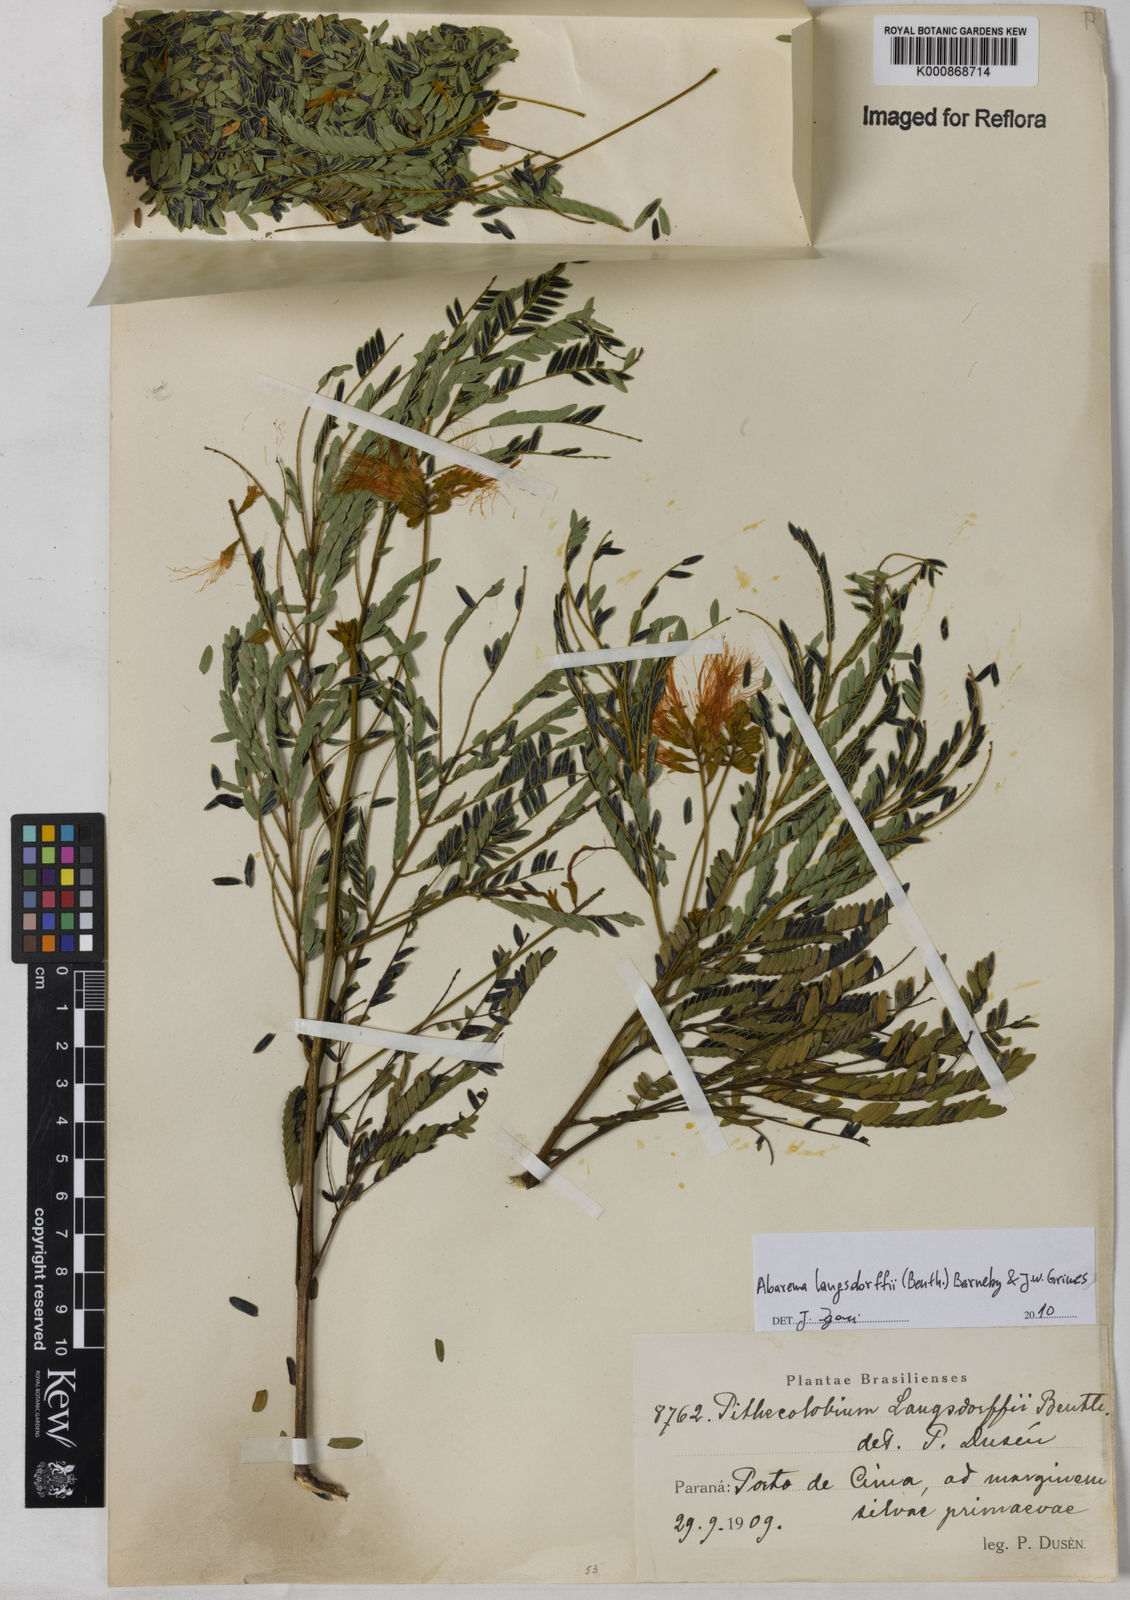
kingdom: Plantae
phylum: Tracheophyta
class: Magnoliopsida
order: Fabales
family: Fabaceae
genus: Jupunba
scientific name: Jupunba langsdorffii
